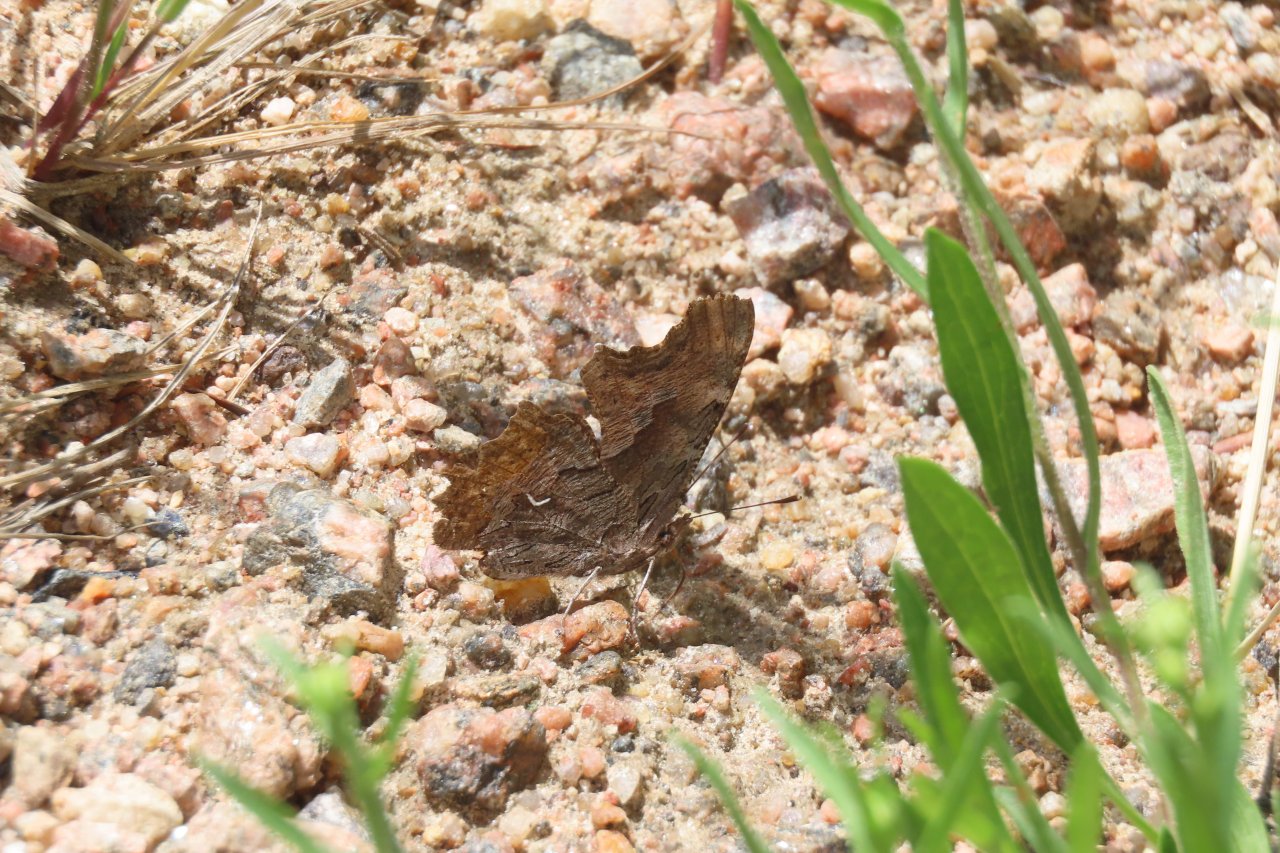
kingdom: Animalia
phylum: Arthropoda
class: Insecta
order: Lepidoptera
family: Nymphalidae
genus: Polygonia
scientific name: Polygonia gracilis
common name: Hoary Comma
